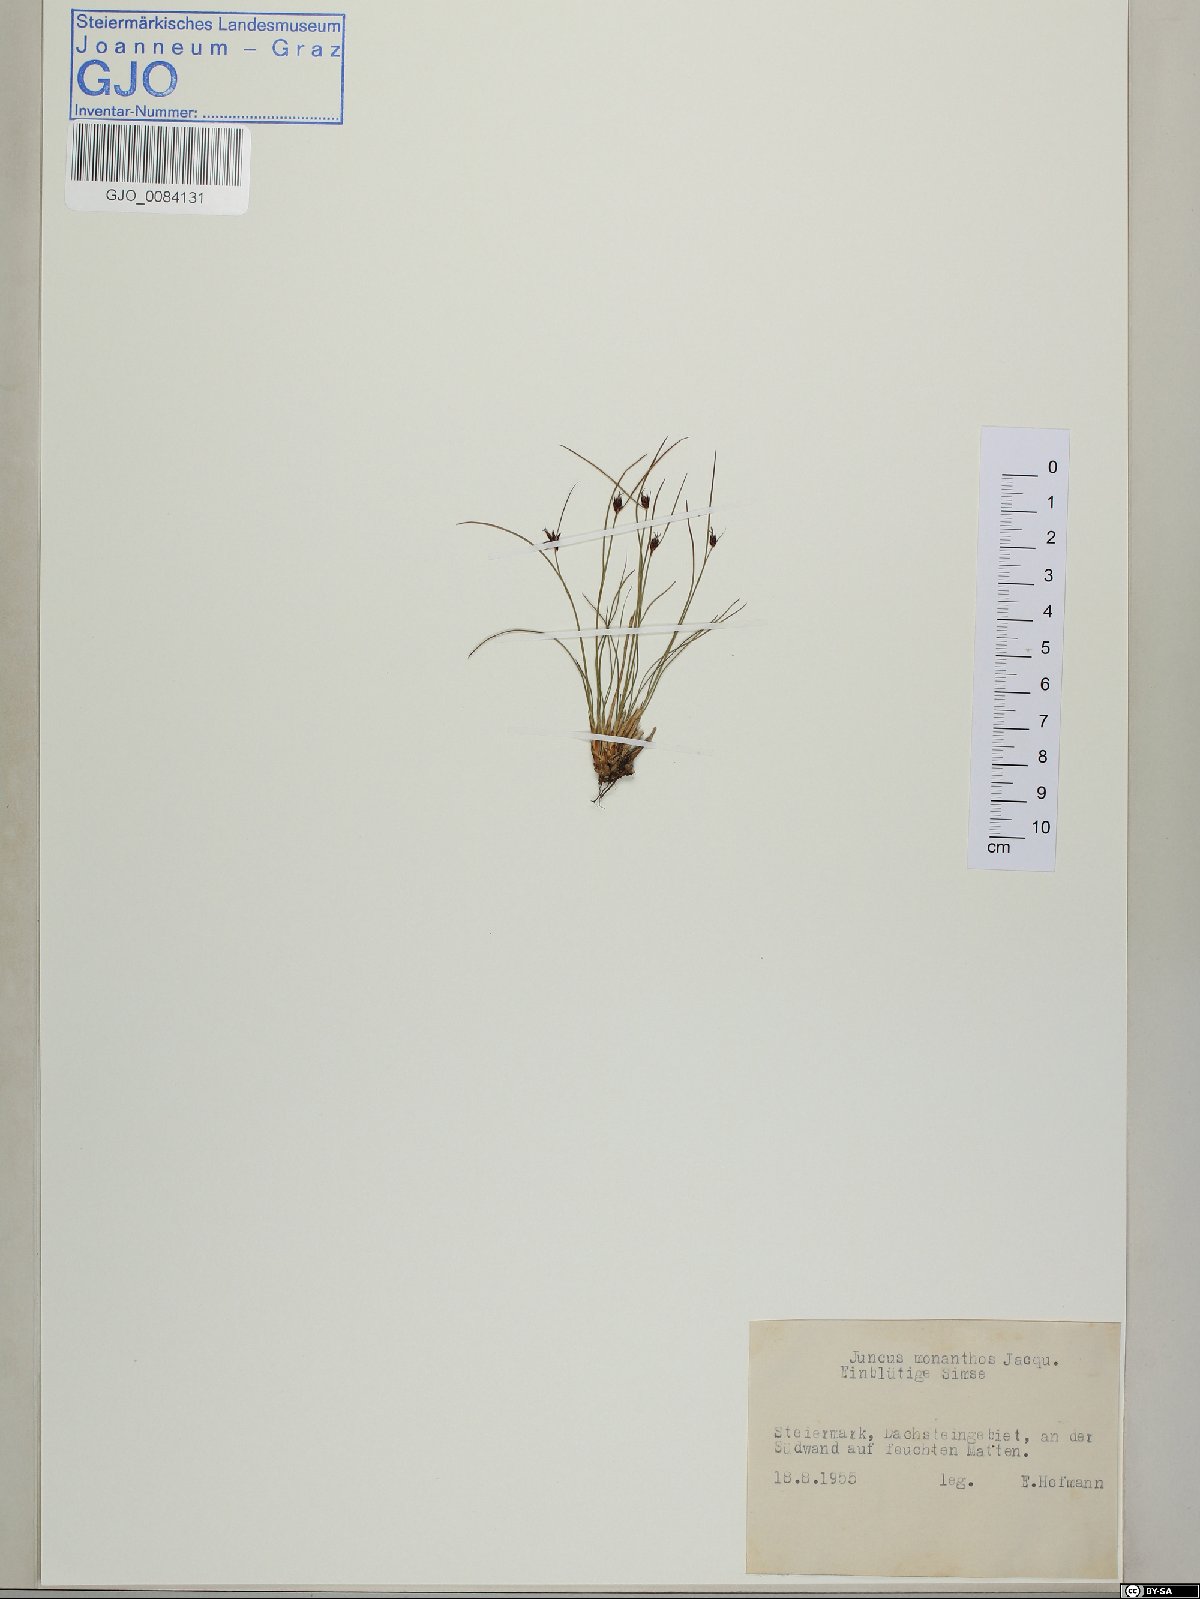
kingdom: Plantae
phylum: Tracheophyta
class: Liliopsida
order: Poales
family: Juncaceae
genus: Oreojuncus
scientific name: Oreojuncus monanthos
